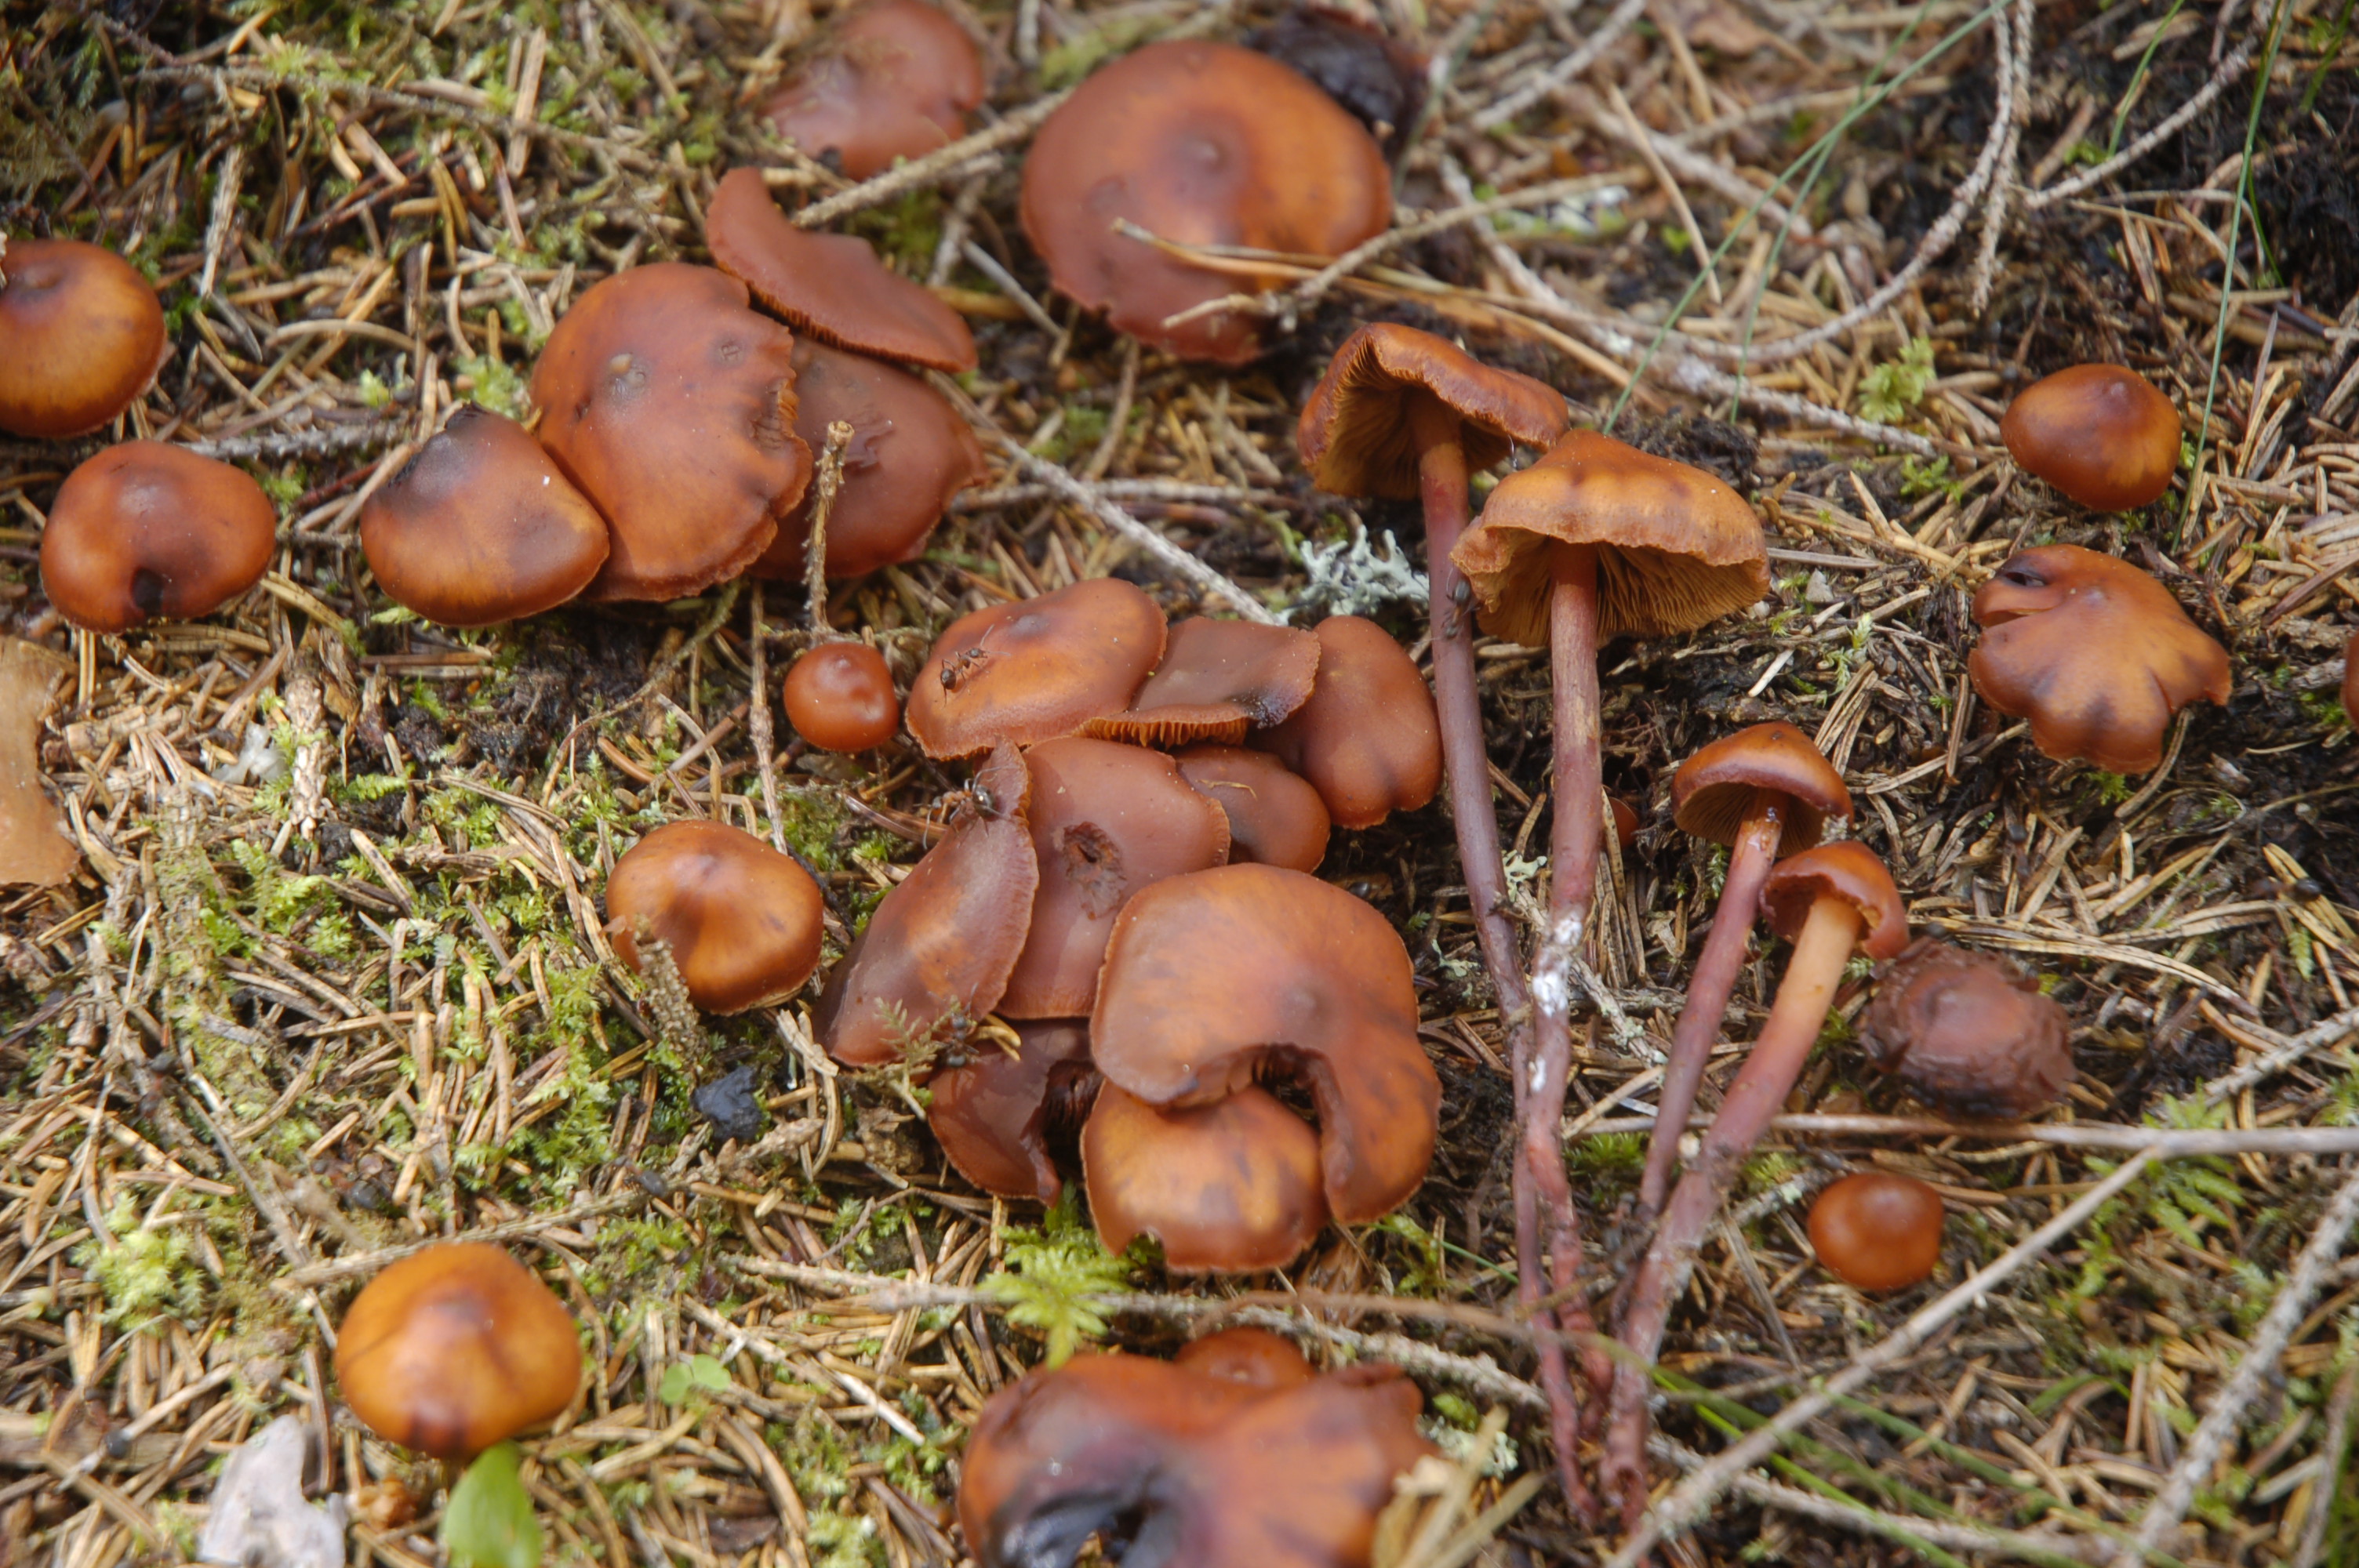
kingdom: Fungi
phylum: Basidiomycota
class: Agaricomycetes
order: Agaricales
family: Hymenogastraceae
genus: Phaeocollybia
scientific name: Phaeocollybia jennyae
